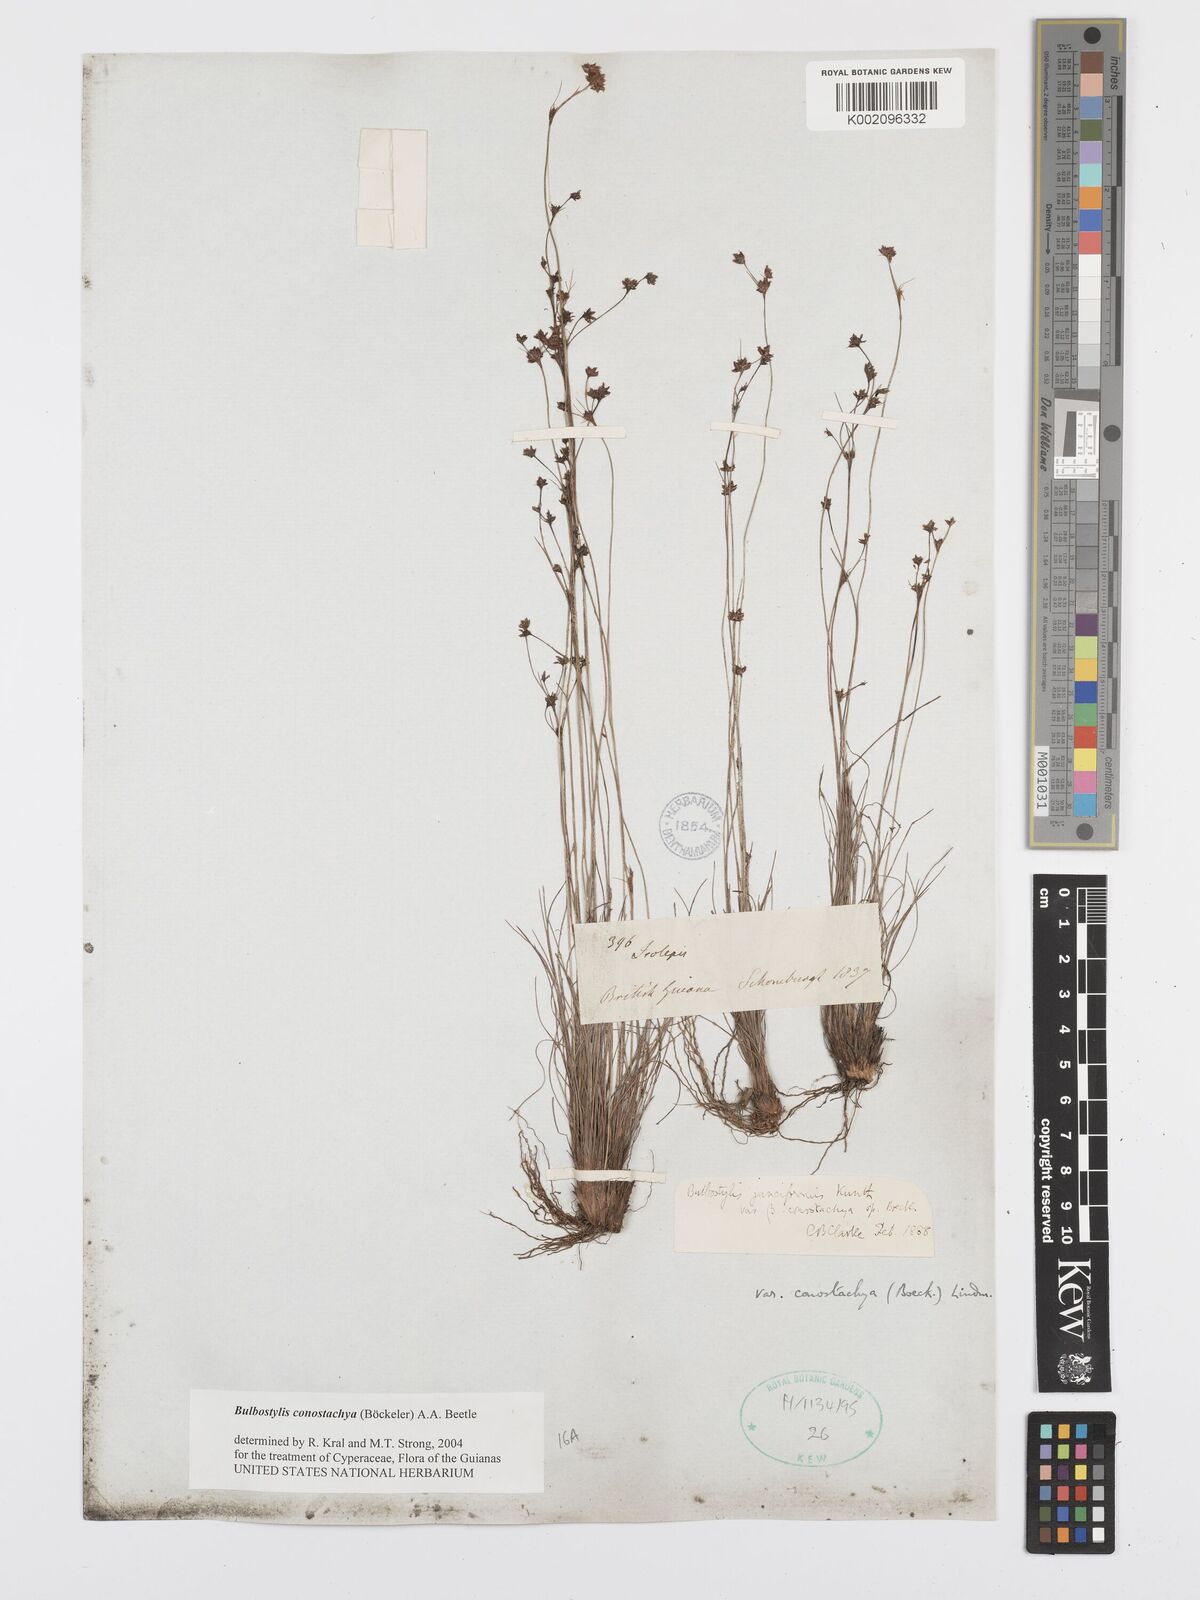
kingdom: Plantae
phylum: Tracheophyta
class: Liliopsida
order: Poales
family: Cyperaceae
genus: Bulbostylis
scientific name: Bulbostylis conostachya
